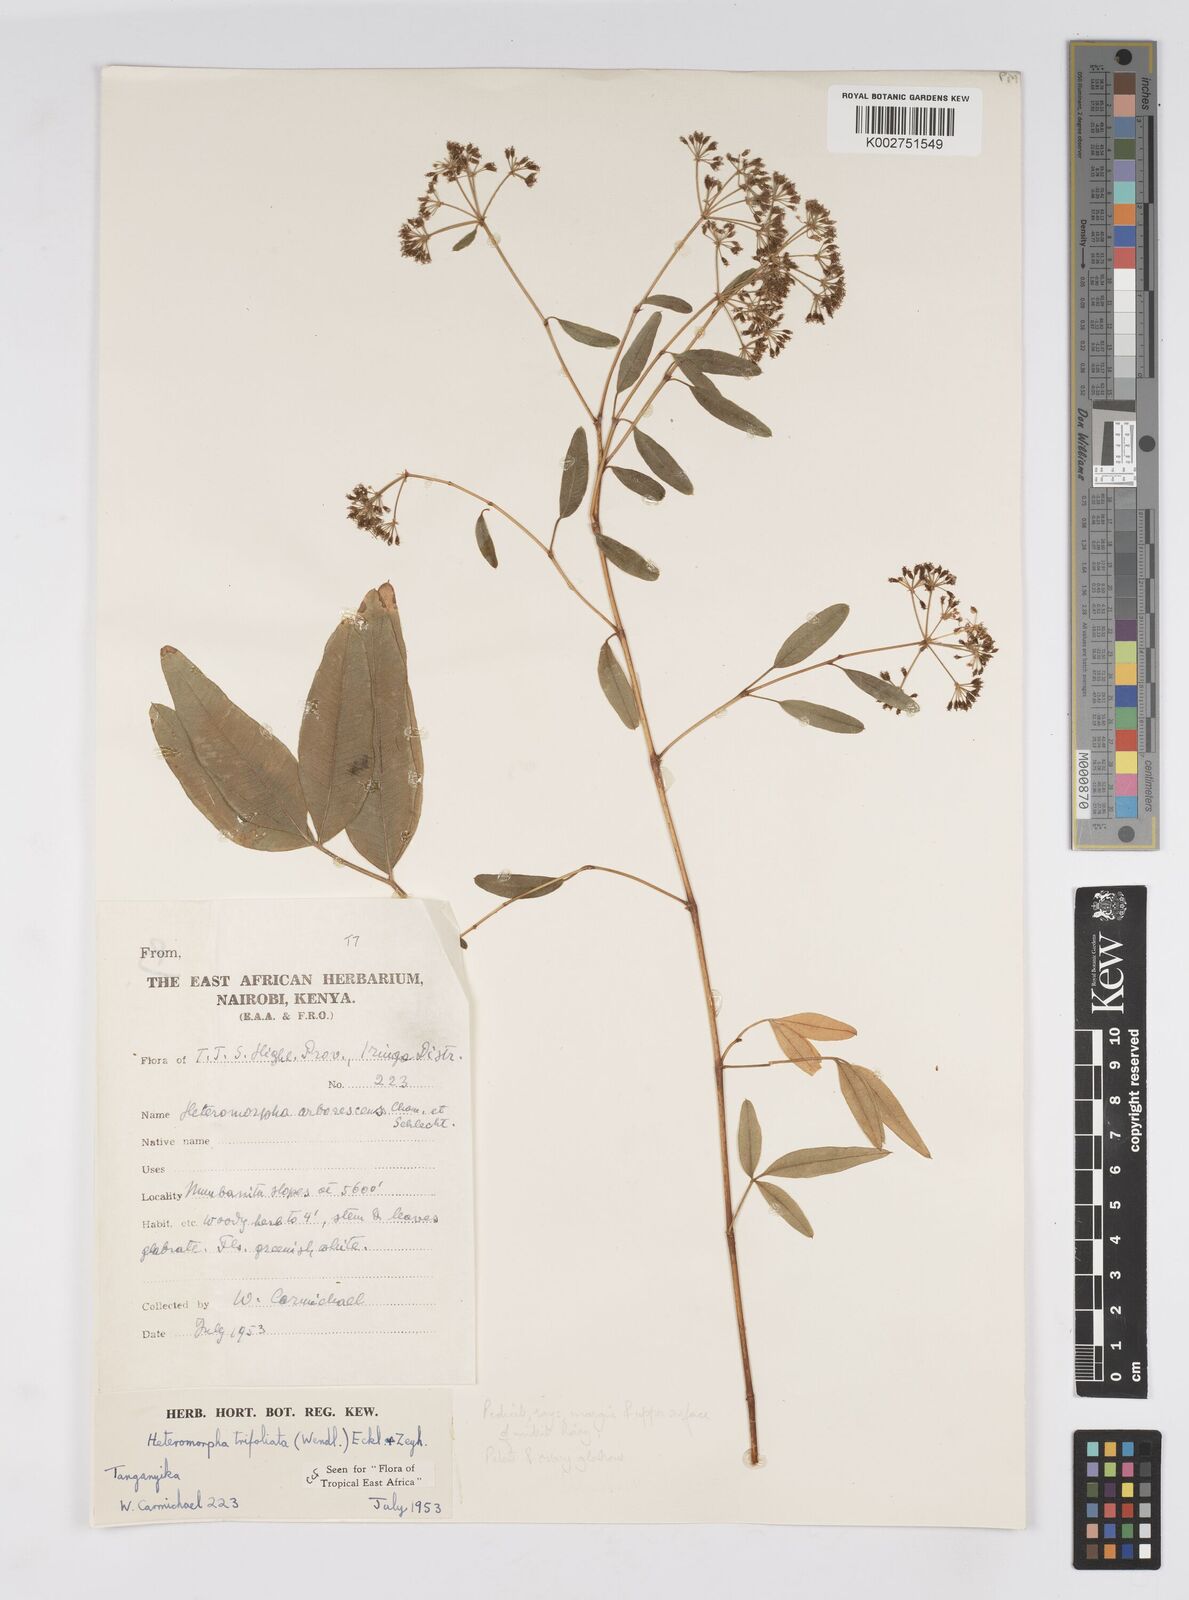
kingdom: Plantae
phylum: Tracheophyta
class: Magnoliopsida
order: Apiales
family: Apiaceae
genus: Heteromorpha
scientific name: Heteromorpha arborescens
